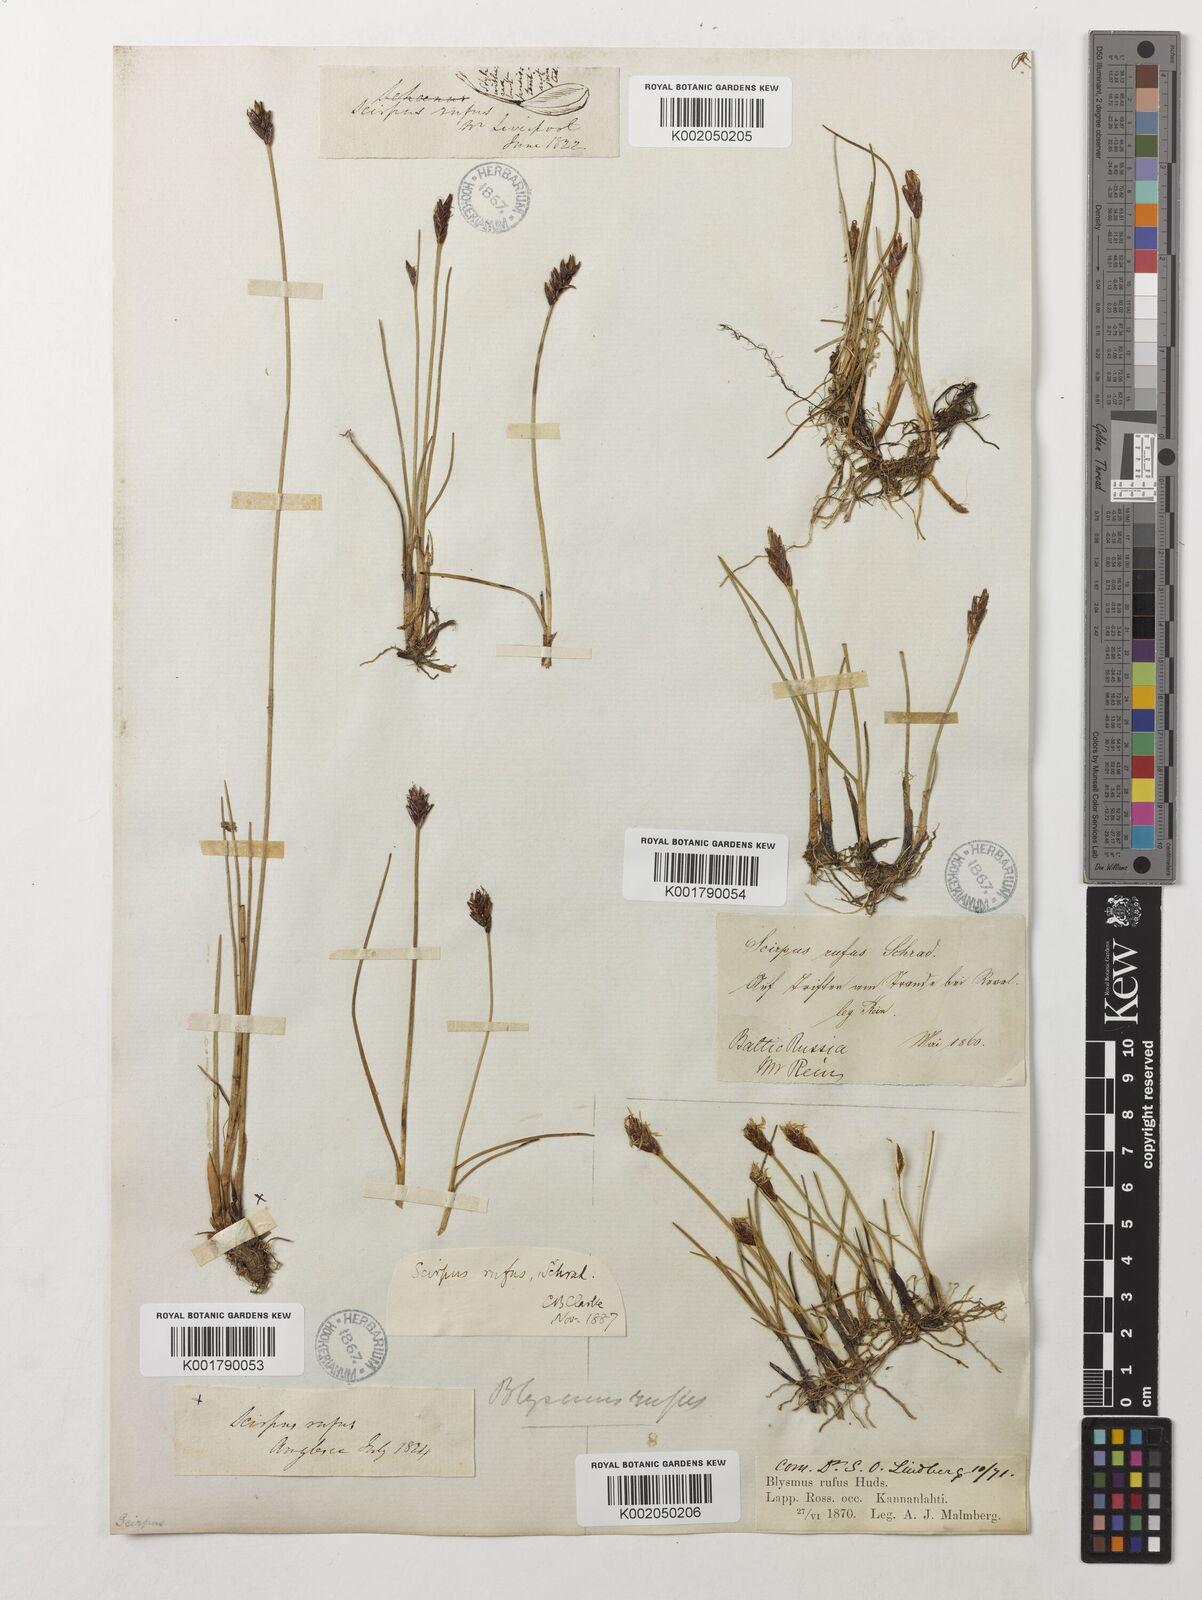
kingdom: Plantae
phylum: Tracheophyta
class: Liliopsida
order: Poales
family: Cyperaceae
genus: Blysmus
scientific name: Blysmus rufus
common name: Saltmarsh flat-sedge
